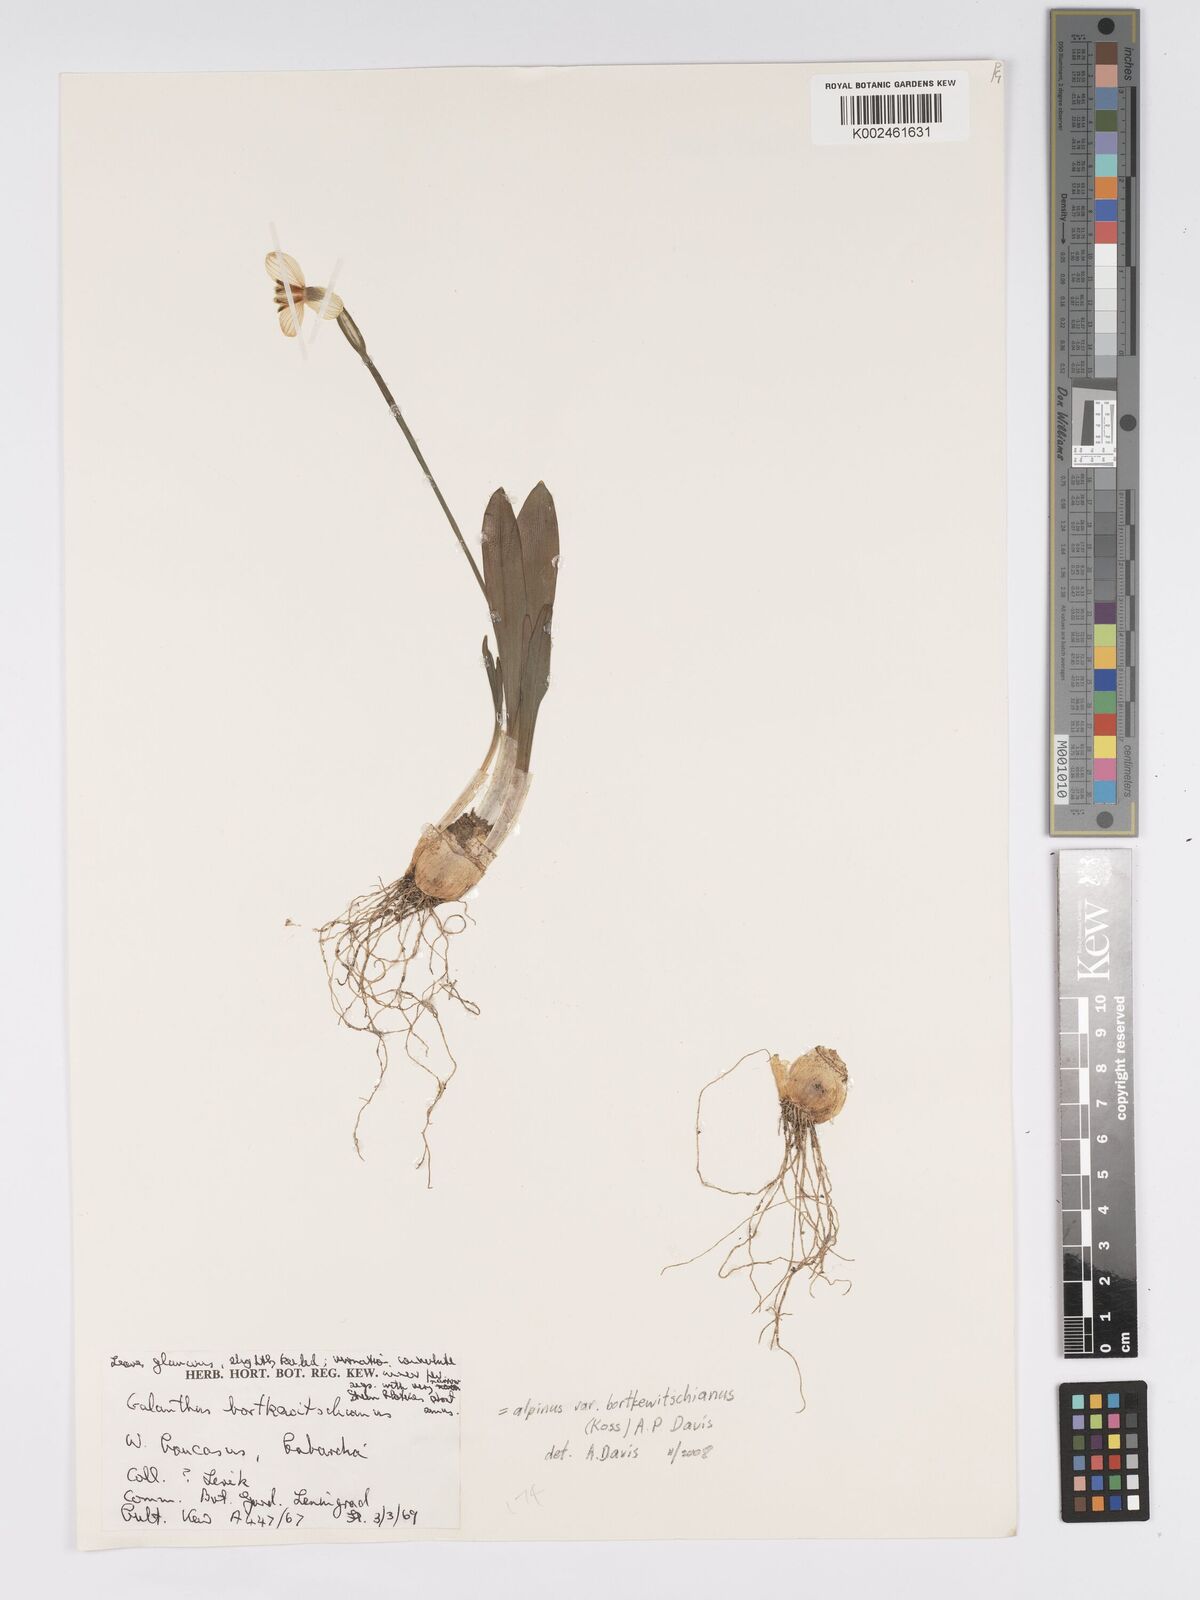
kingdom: Plantae
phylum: Tracheophyta
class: Liliopsida
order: Asparagales
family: Amaryllidaceae
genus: Galanthus
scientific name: Galanthus alpinus
